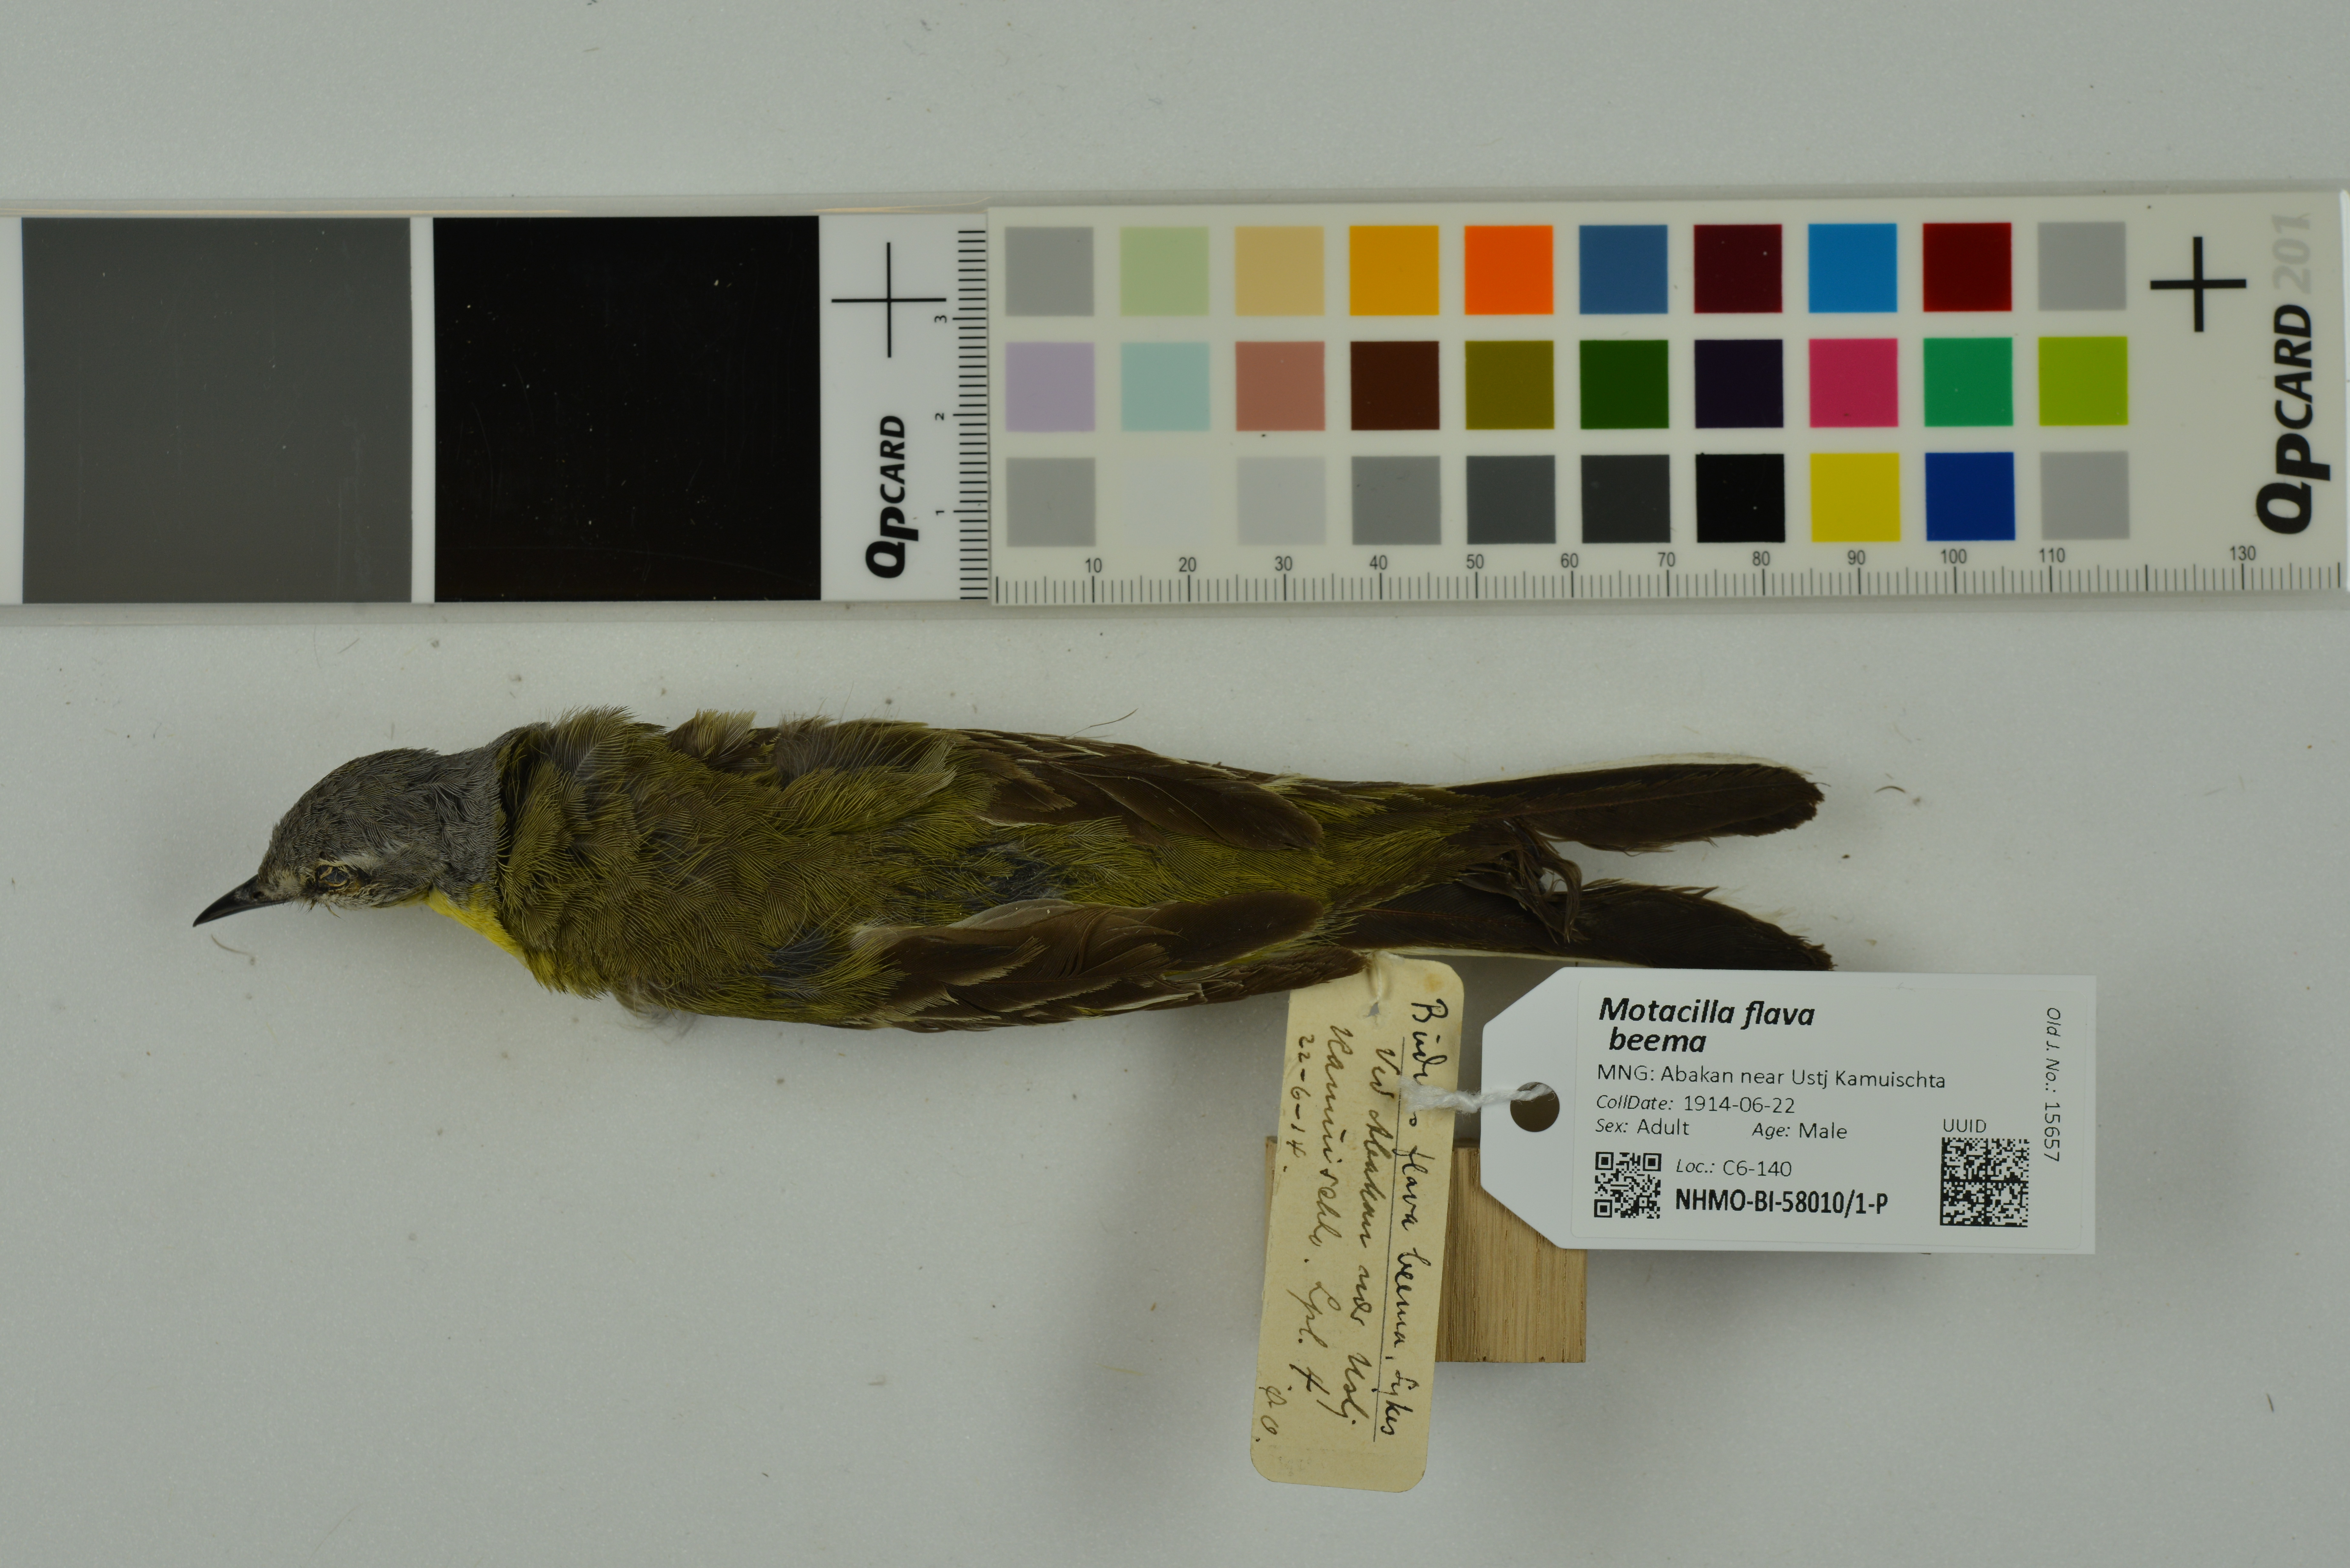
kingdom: Animalia
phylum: Chordata
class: Aves
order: Passeriformes
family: Motacillidae
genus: Motacilla
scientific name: Motacilla flava
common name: Western yellow wagtail
